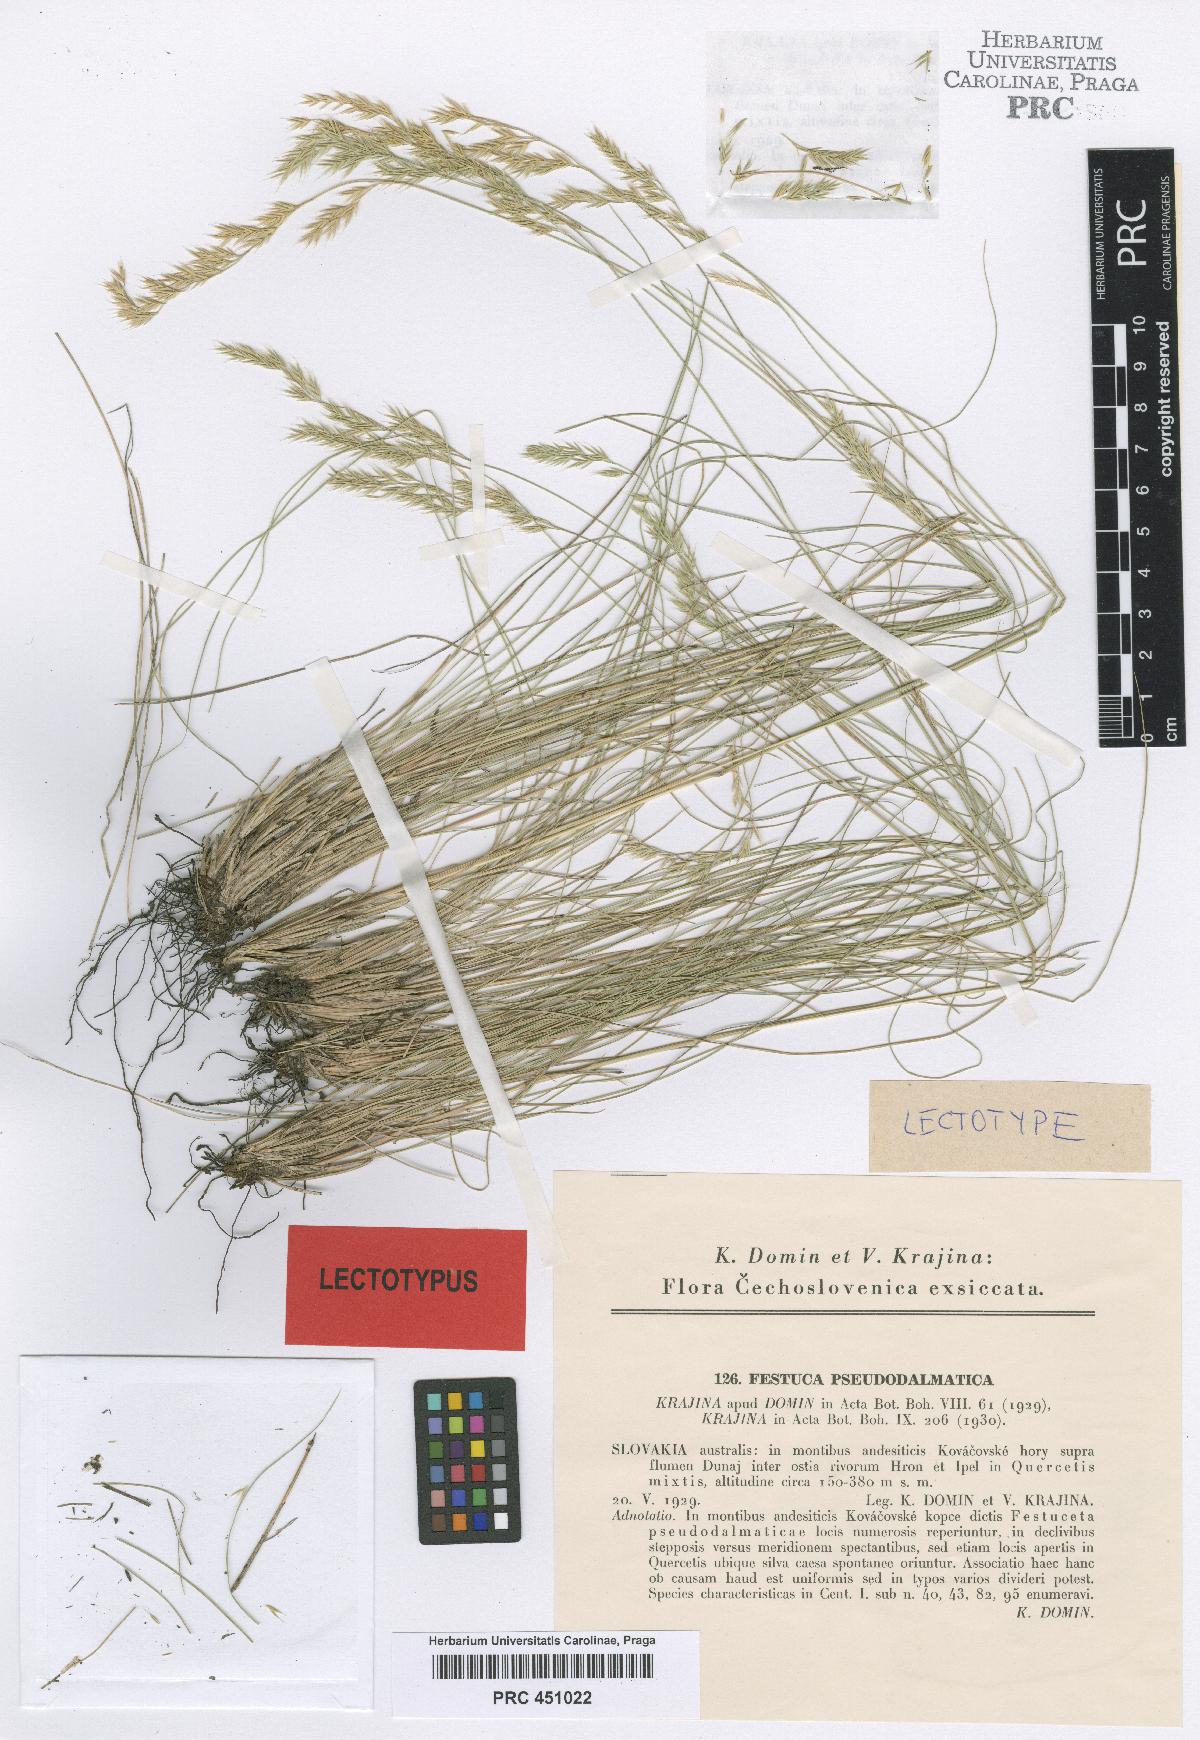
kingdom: Plantae
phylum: Tracheophyta
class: Liliopsida
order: Poales
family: Poaceae
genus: Festuca
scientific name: Festuca pseudodalmatica
